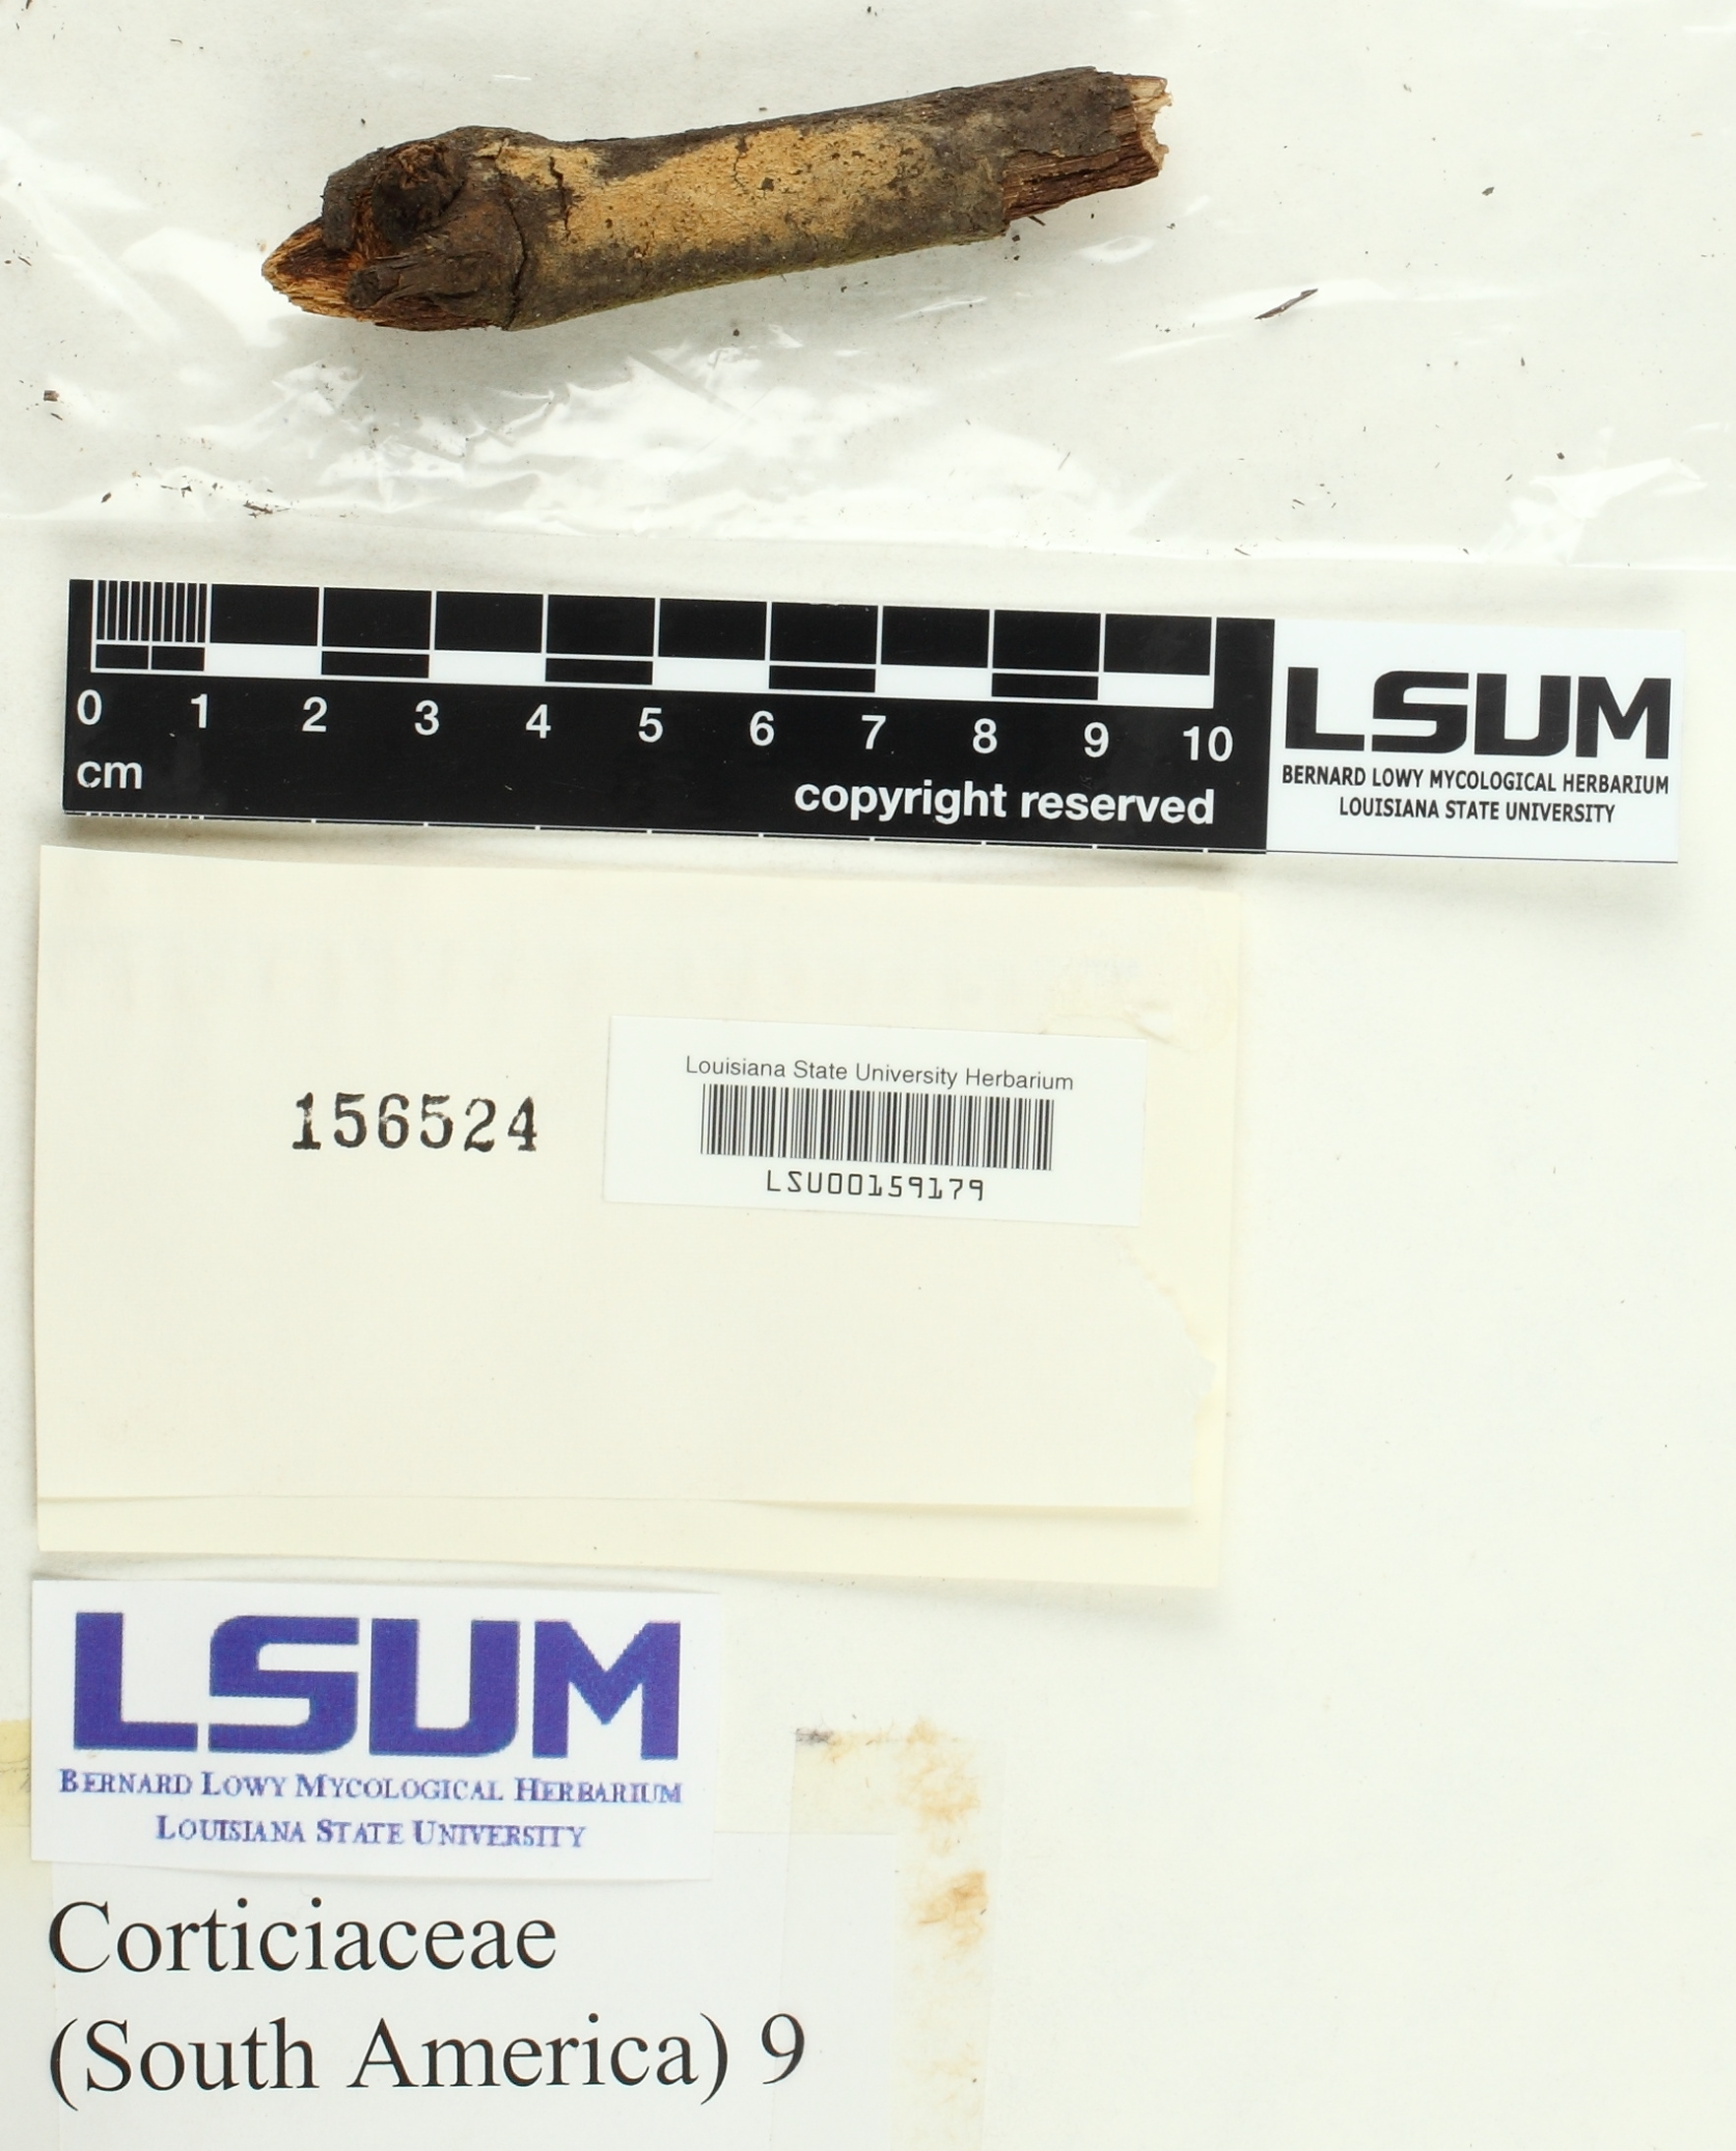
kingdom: Fungi
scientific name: Fungi
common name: Fungi
